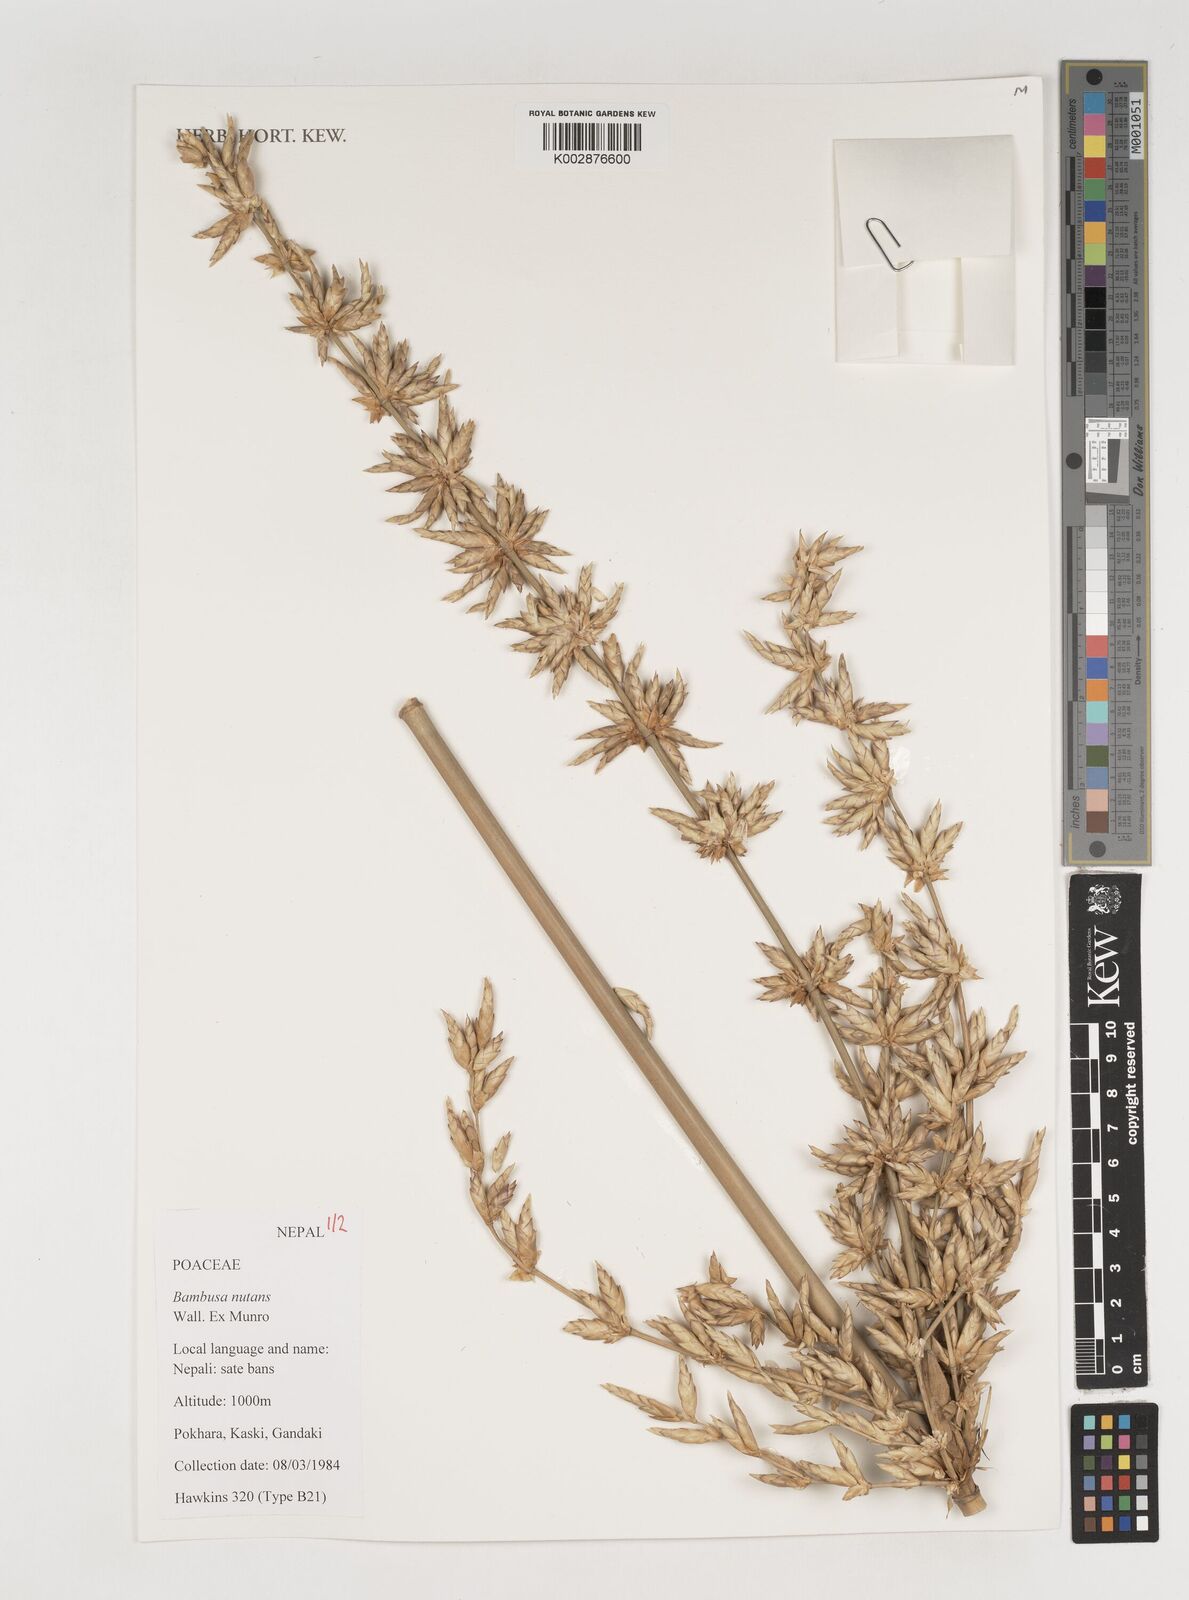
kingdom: Plantae
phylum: Tracheophyta
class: Liliopsida
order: Poales
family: Poaceae
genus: Bambusa
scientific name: Bambusa nutans
